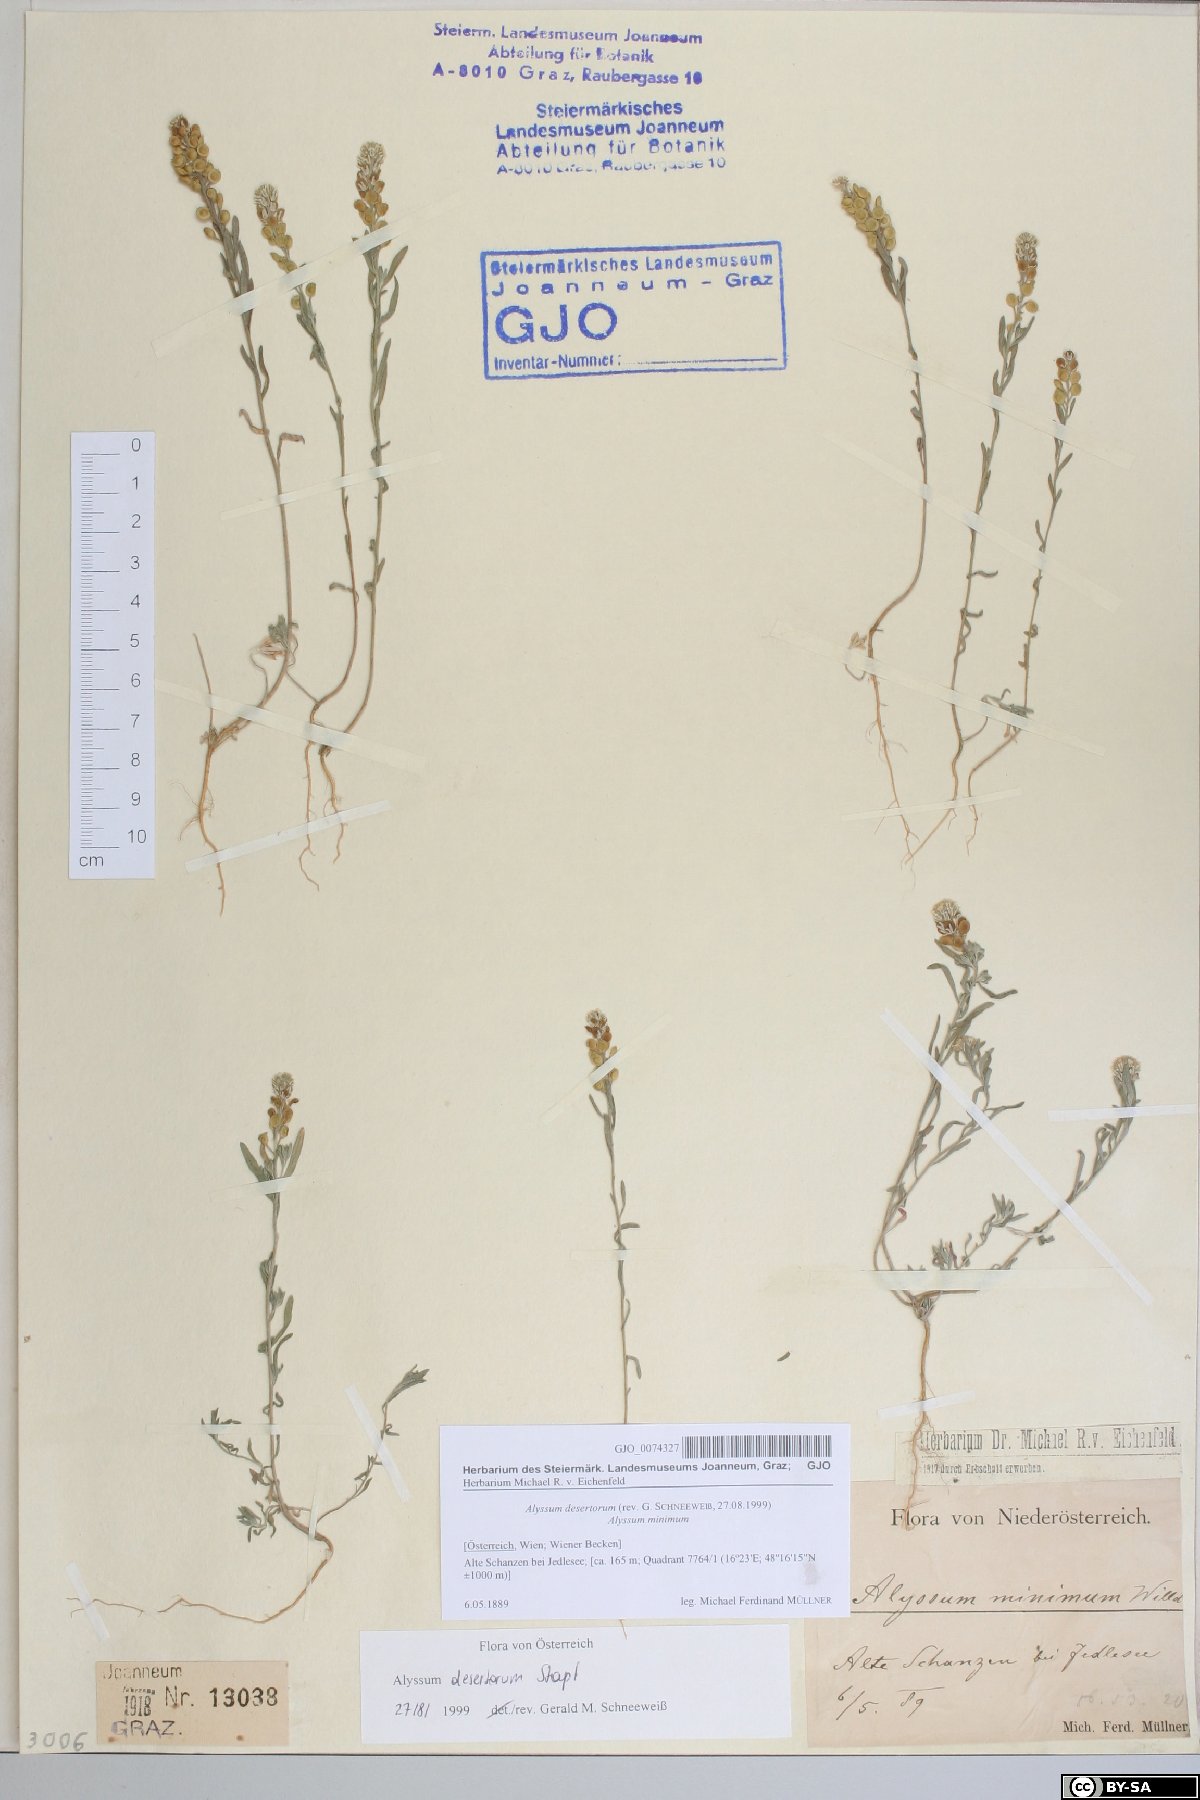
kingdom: Plantae
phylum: Tracheophyta
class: Magnoliopsida
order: Brassicales
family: Brassicaceae
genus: Alyssum
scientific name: Alyssum turkestanicum
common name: Desert alyssum
